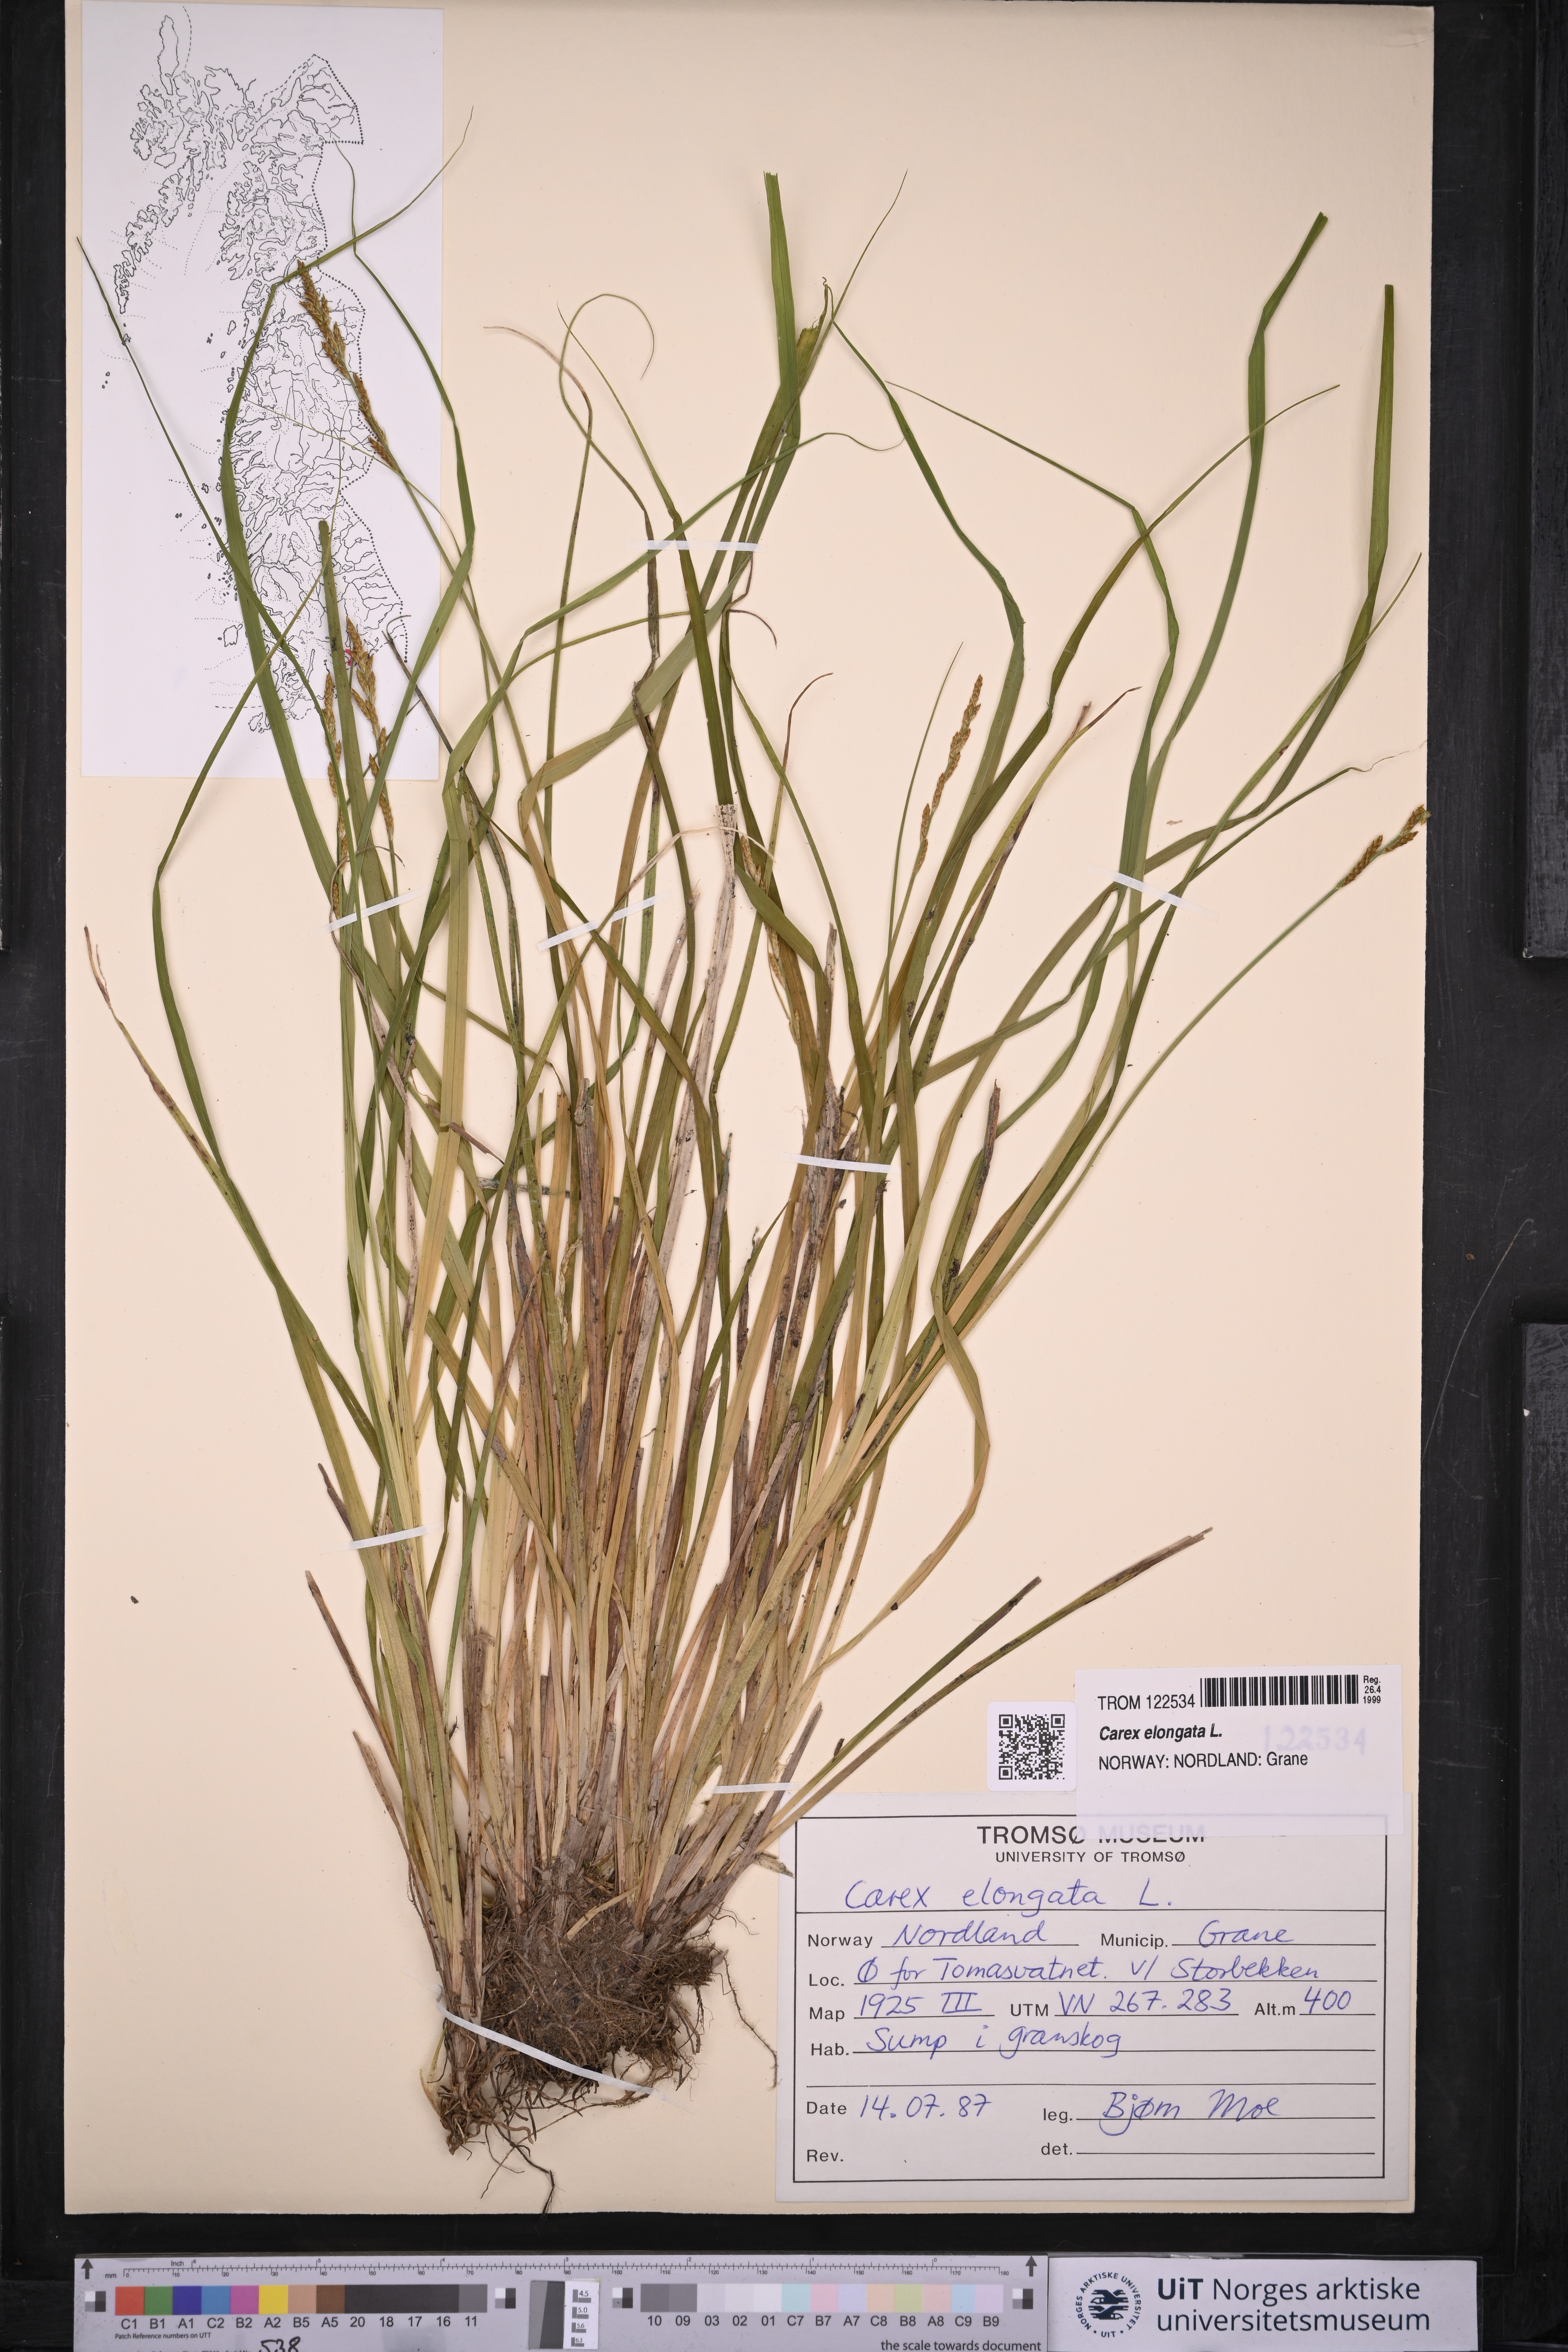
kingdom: Plantae
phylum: Tracheophyta
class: Liliopsida
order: Poales
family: Cyperaceae
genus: Carex
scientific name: Carex elongata
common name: Elongated sedge
